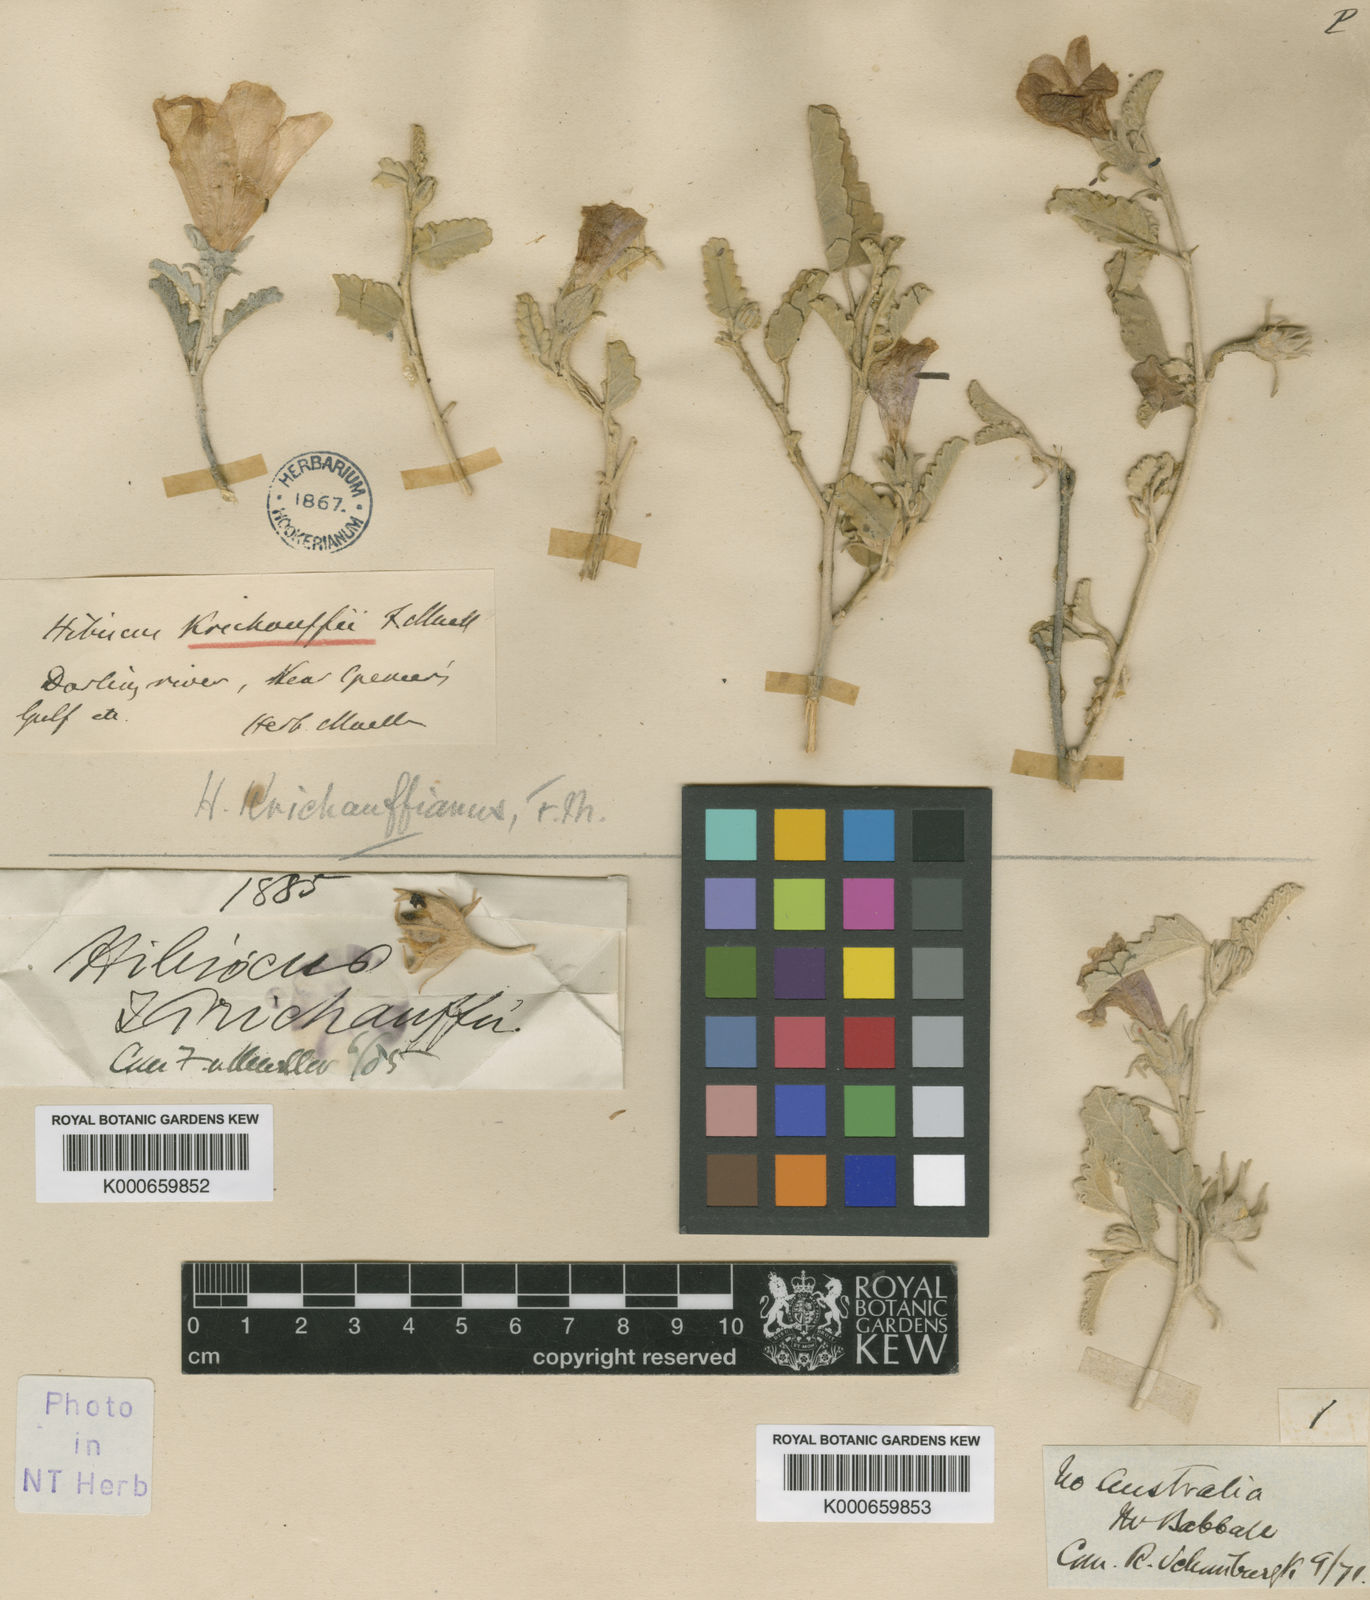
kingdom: Plantae
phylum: Tracheophyta
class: Magnoliopsida
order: Malvales
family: Malvaceae
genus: Hibiscus
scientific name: Hibiscus krichauffianus
